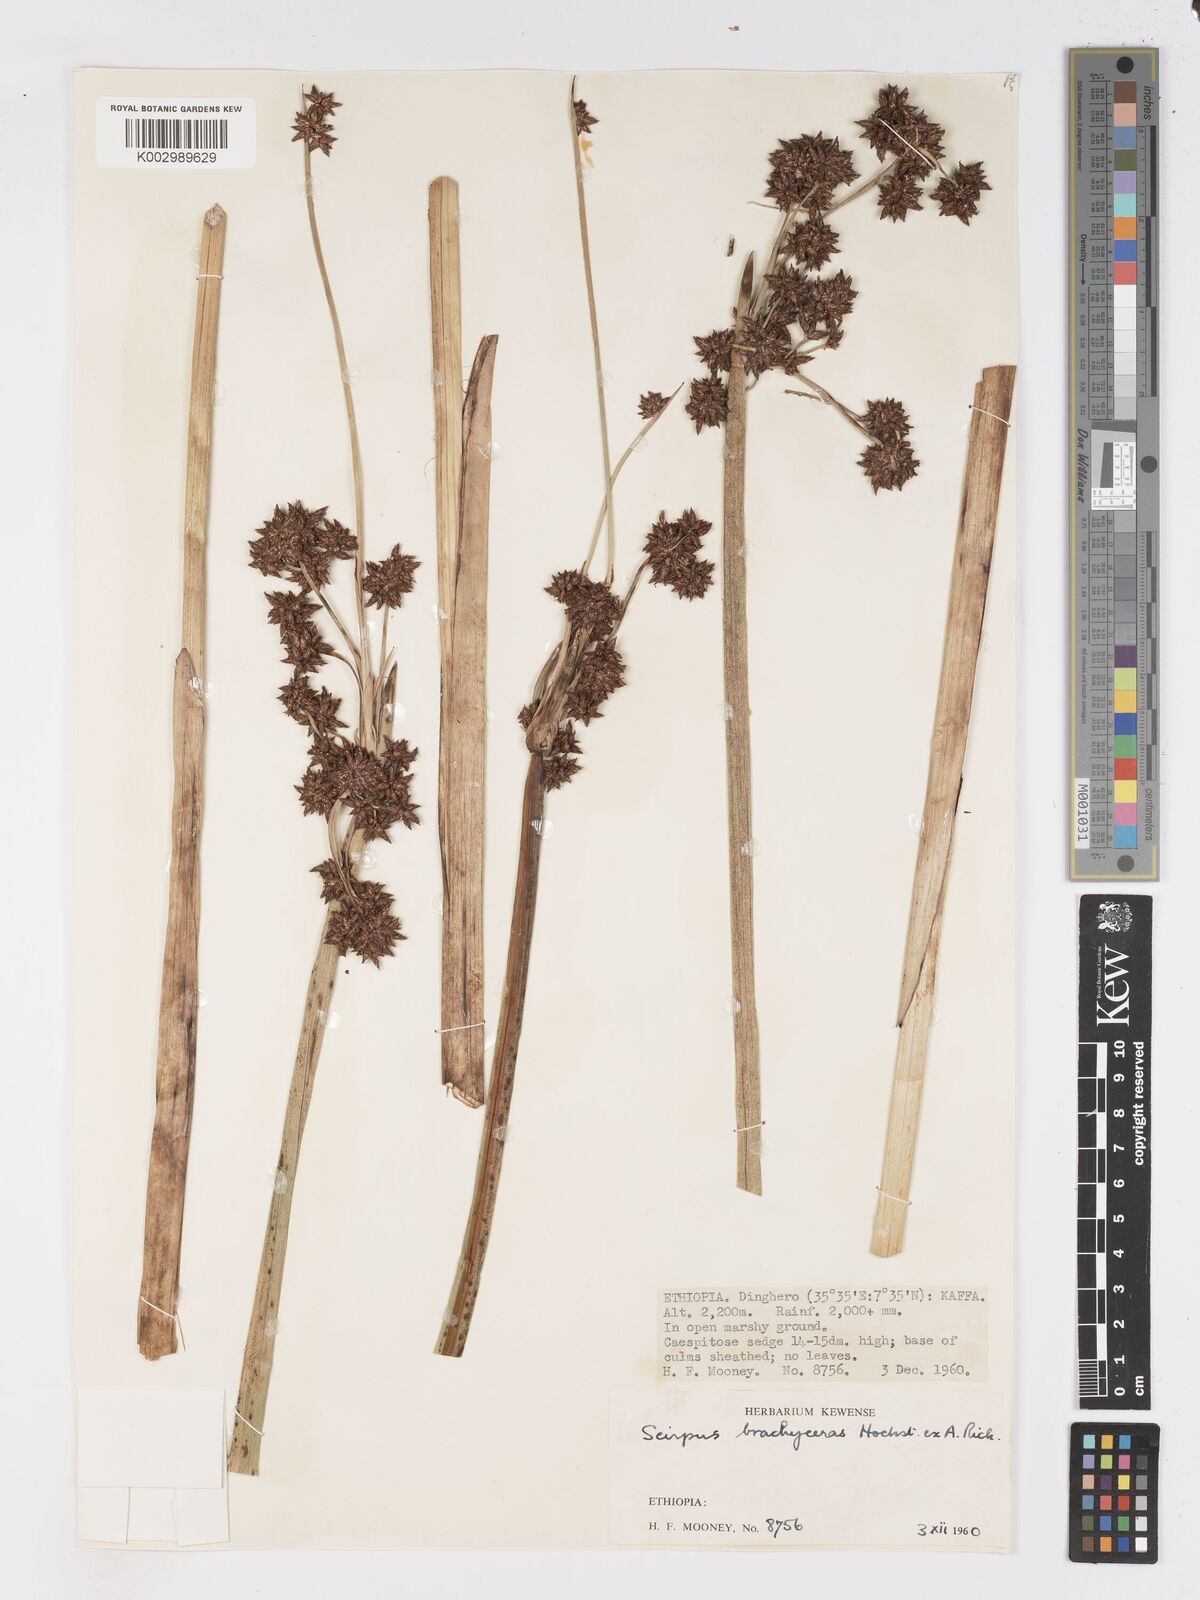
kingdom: Plantae
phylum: Tracheophyta
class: Liliopsida
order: Poales
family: Cyperaceae
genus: Schoenoplectiella
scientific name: Schoenoplectiella brachyceras
